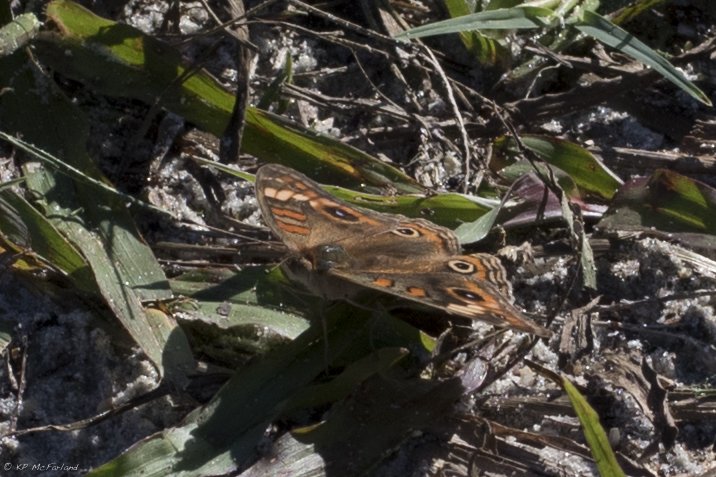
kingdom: Animalia
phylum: Arthropoda
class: Insecta
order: Lepidoptera
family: Nymphalidae
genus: Junonia
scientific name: Junonia evarete
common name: Mangrove Buckeye
